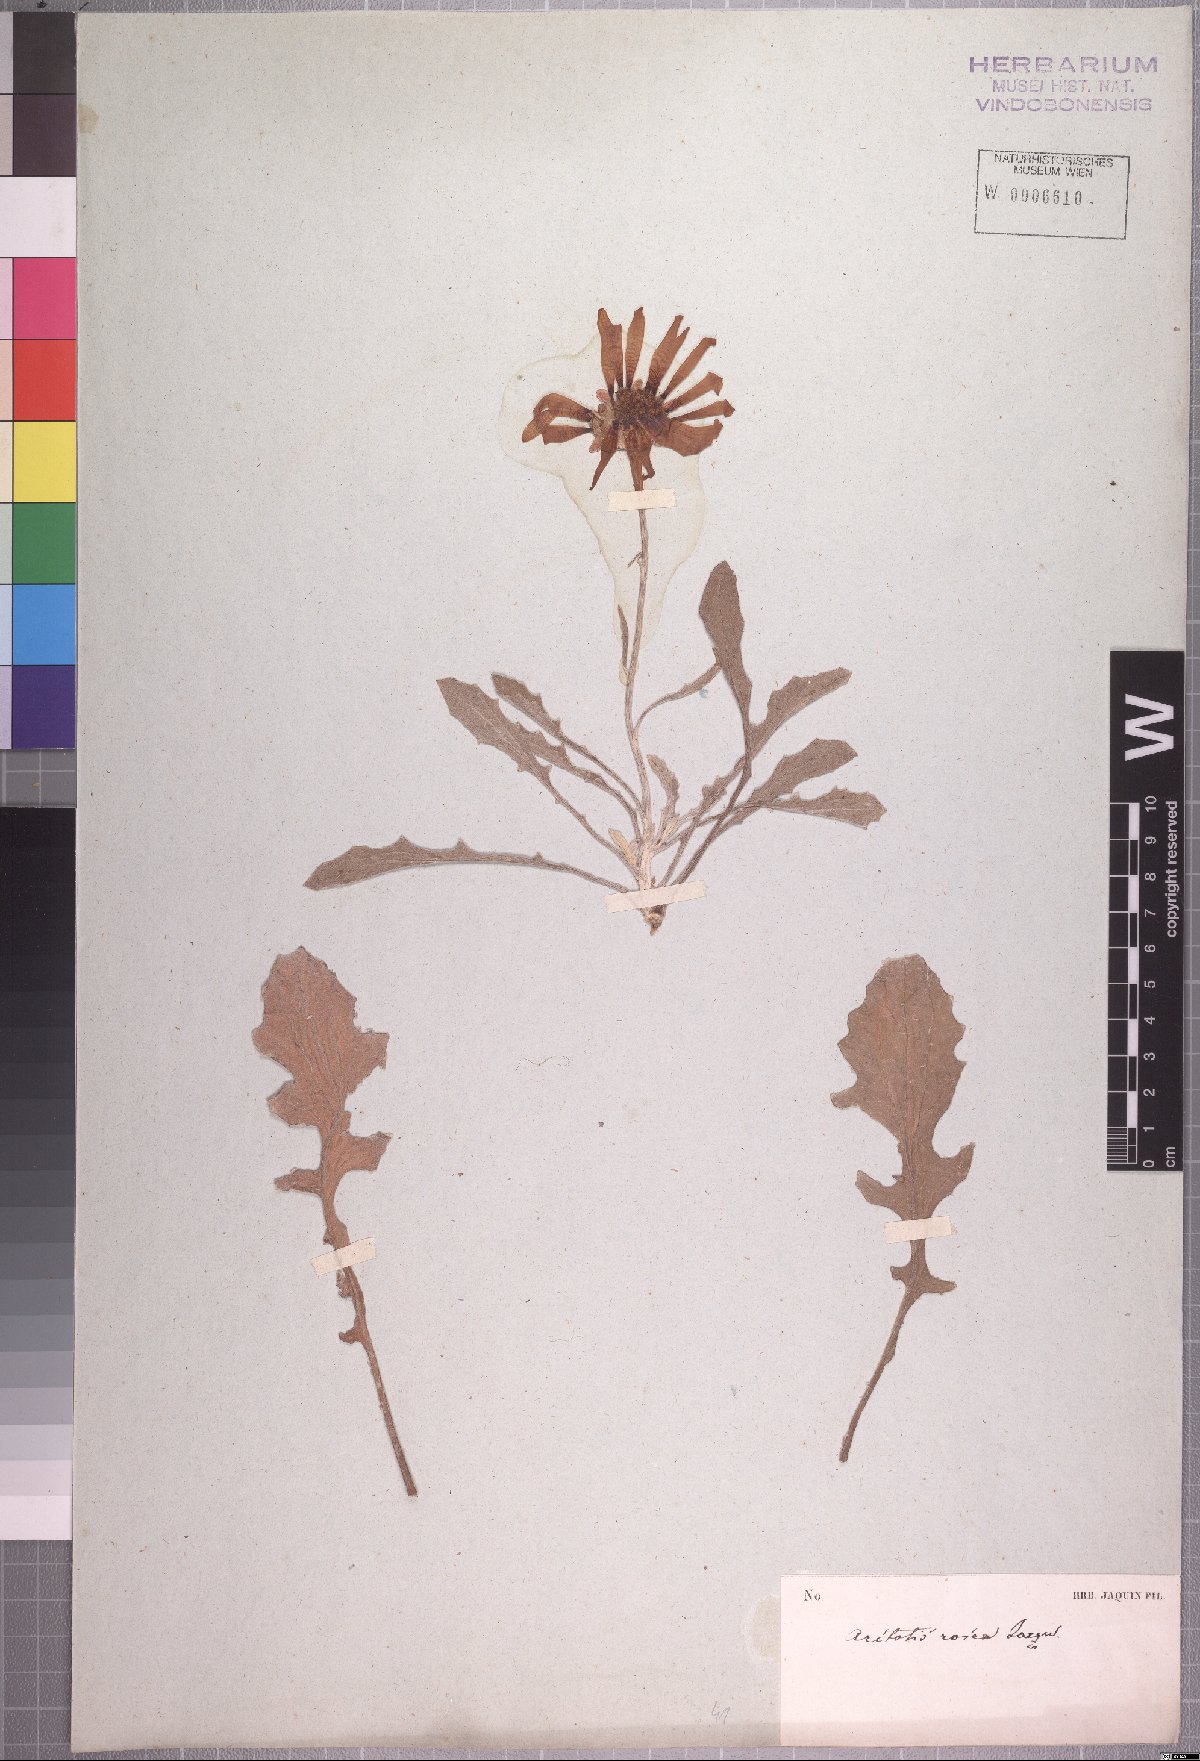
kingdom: Plantae
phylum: Tracheophyta
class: Magnoliopsida
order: Asterales
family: Asteraceae
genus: Arctotis
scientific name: Arctotis rosea
